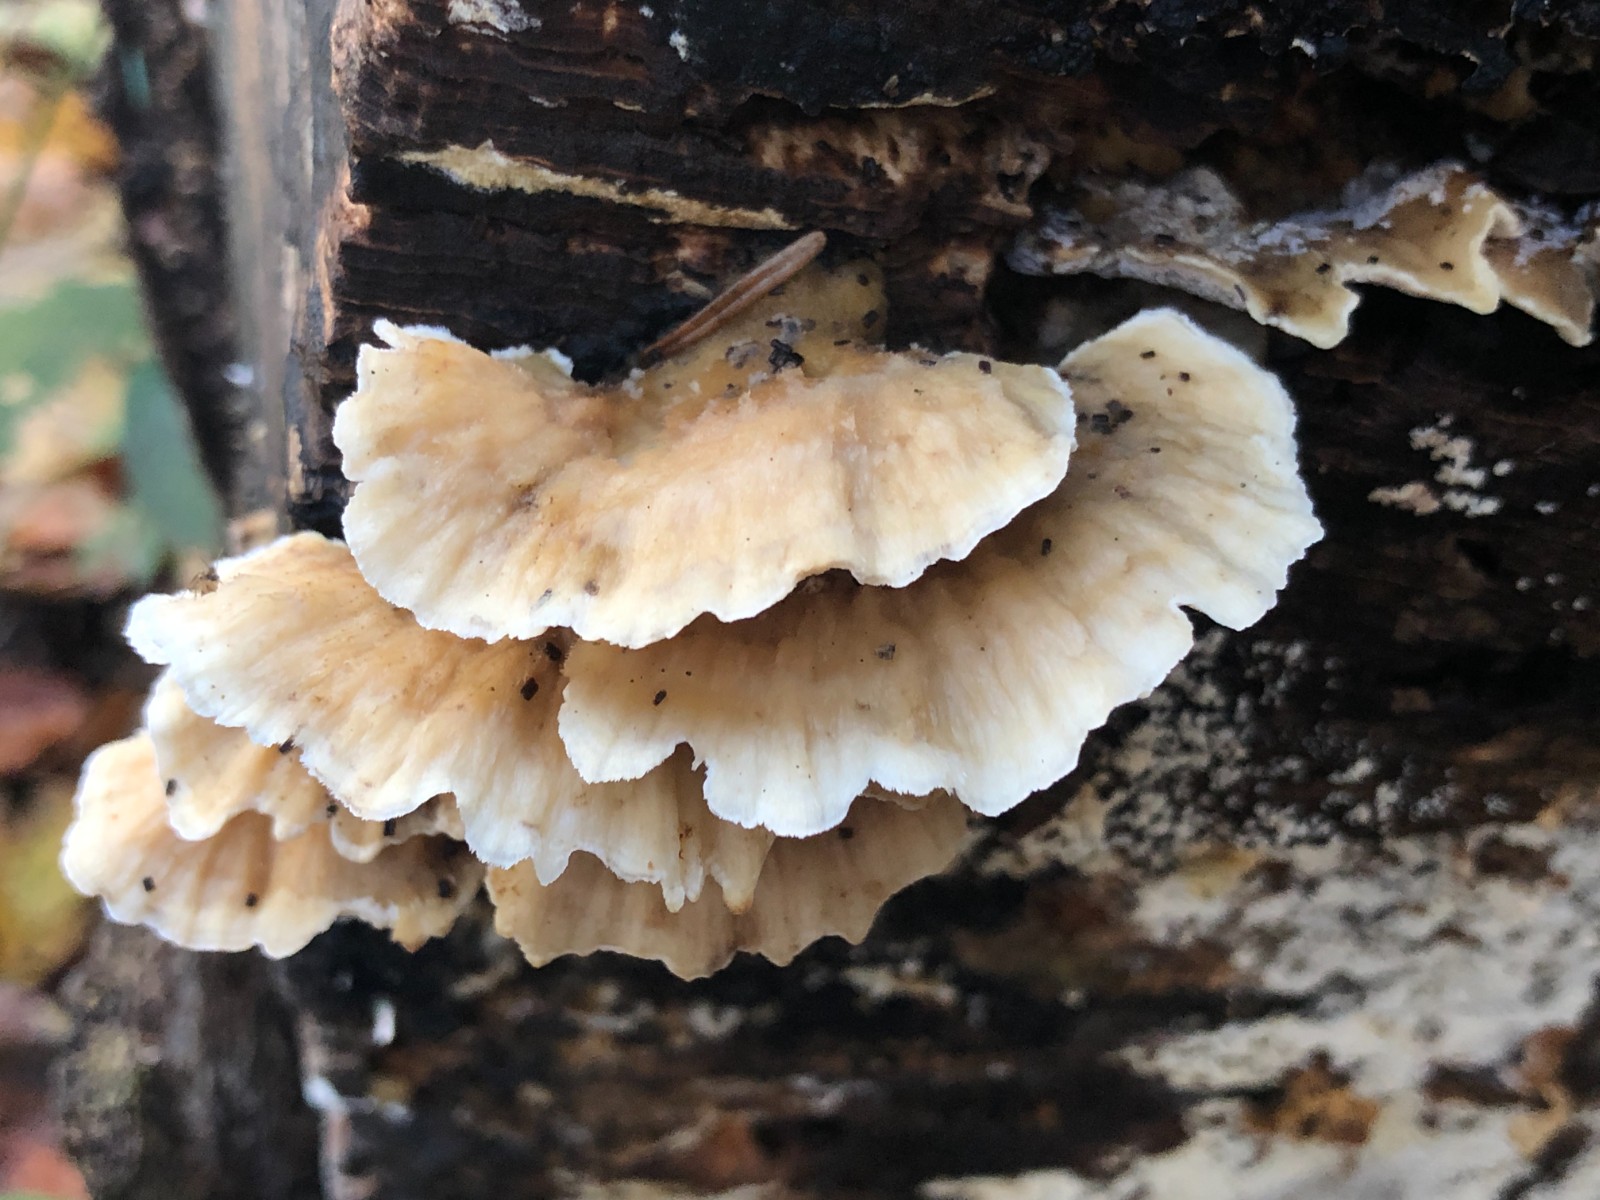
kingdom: Fungi
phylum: Basidiomycota
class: Agaricomycetes
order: Polyporales
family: Polyporaceae
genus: Trametes
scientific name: Trametes ochracea
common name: bæltet læderporesvamp
